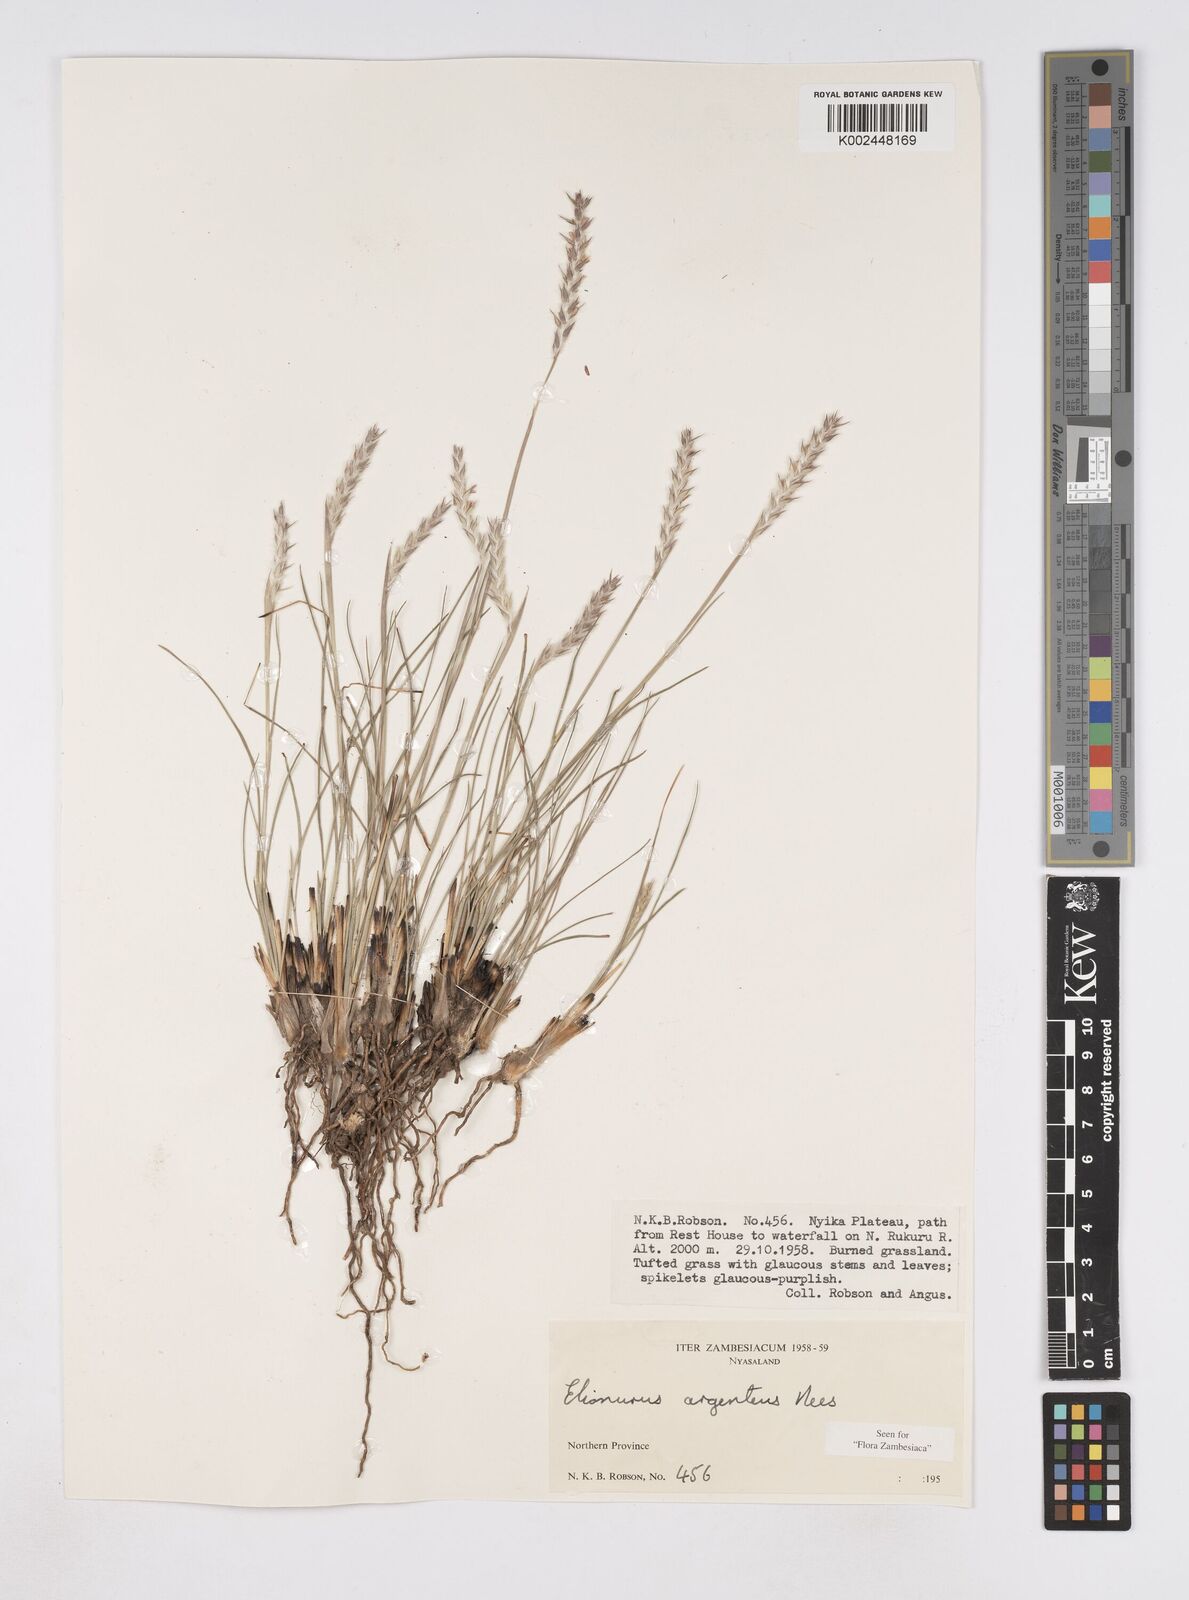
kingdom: Plantae
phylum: Tracheophyta
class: Liliopsida
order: Poales
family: Poaceae
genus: Elionurus
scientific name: Elionurus muticus
